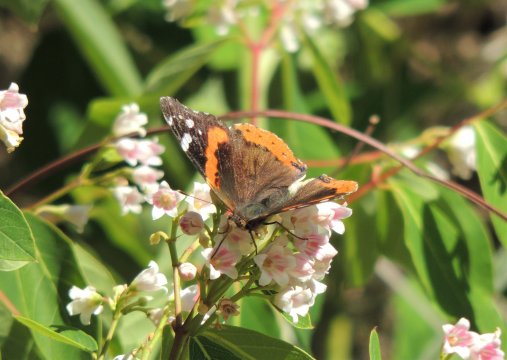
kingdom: Animalia
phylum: Arthropoda
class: Insecta
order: Lepidoptera
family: Nymphalidae
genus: Vanessa
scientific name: Vanessa atalanta
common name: Red Admiral
